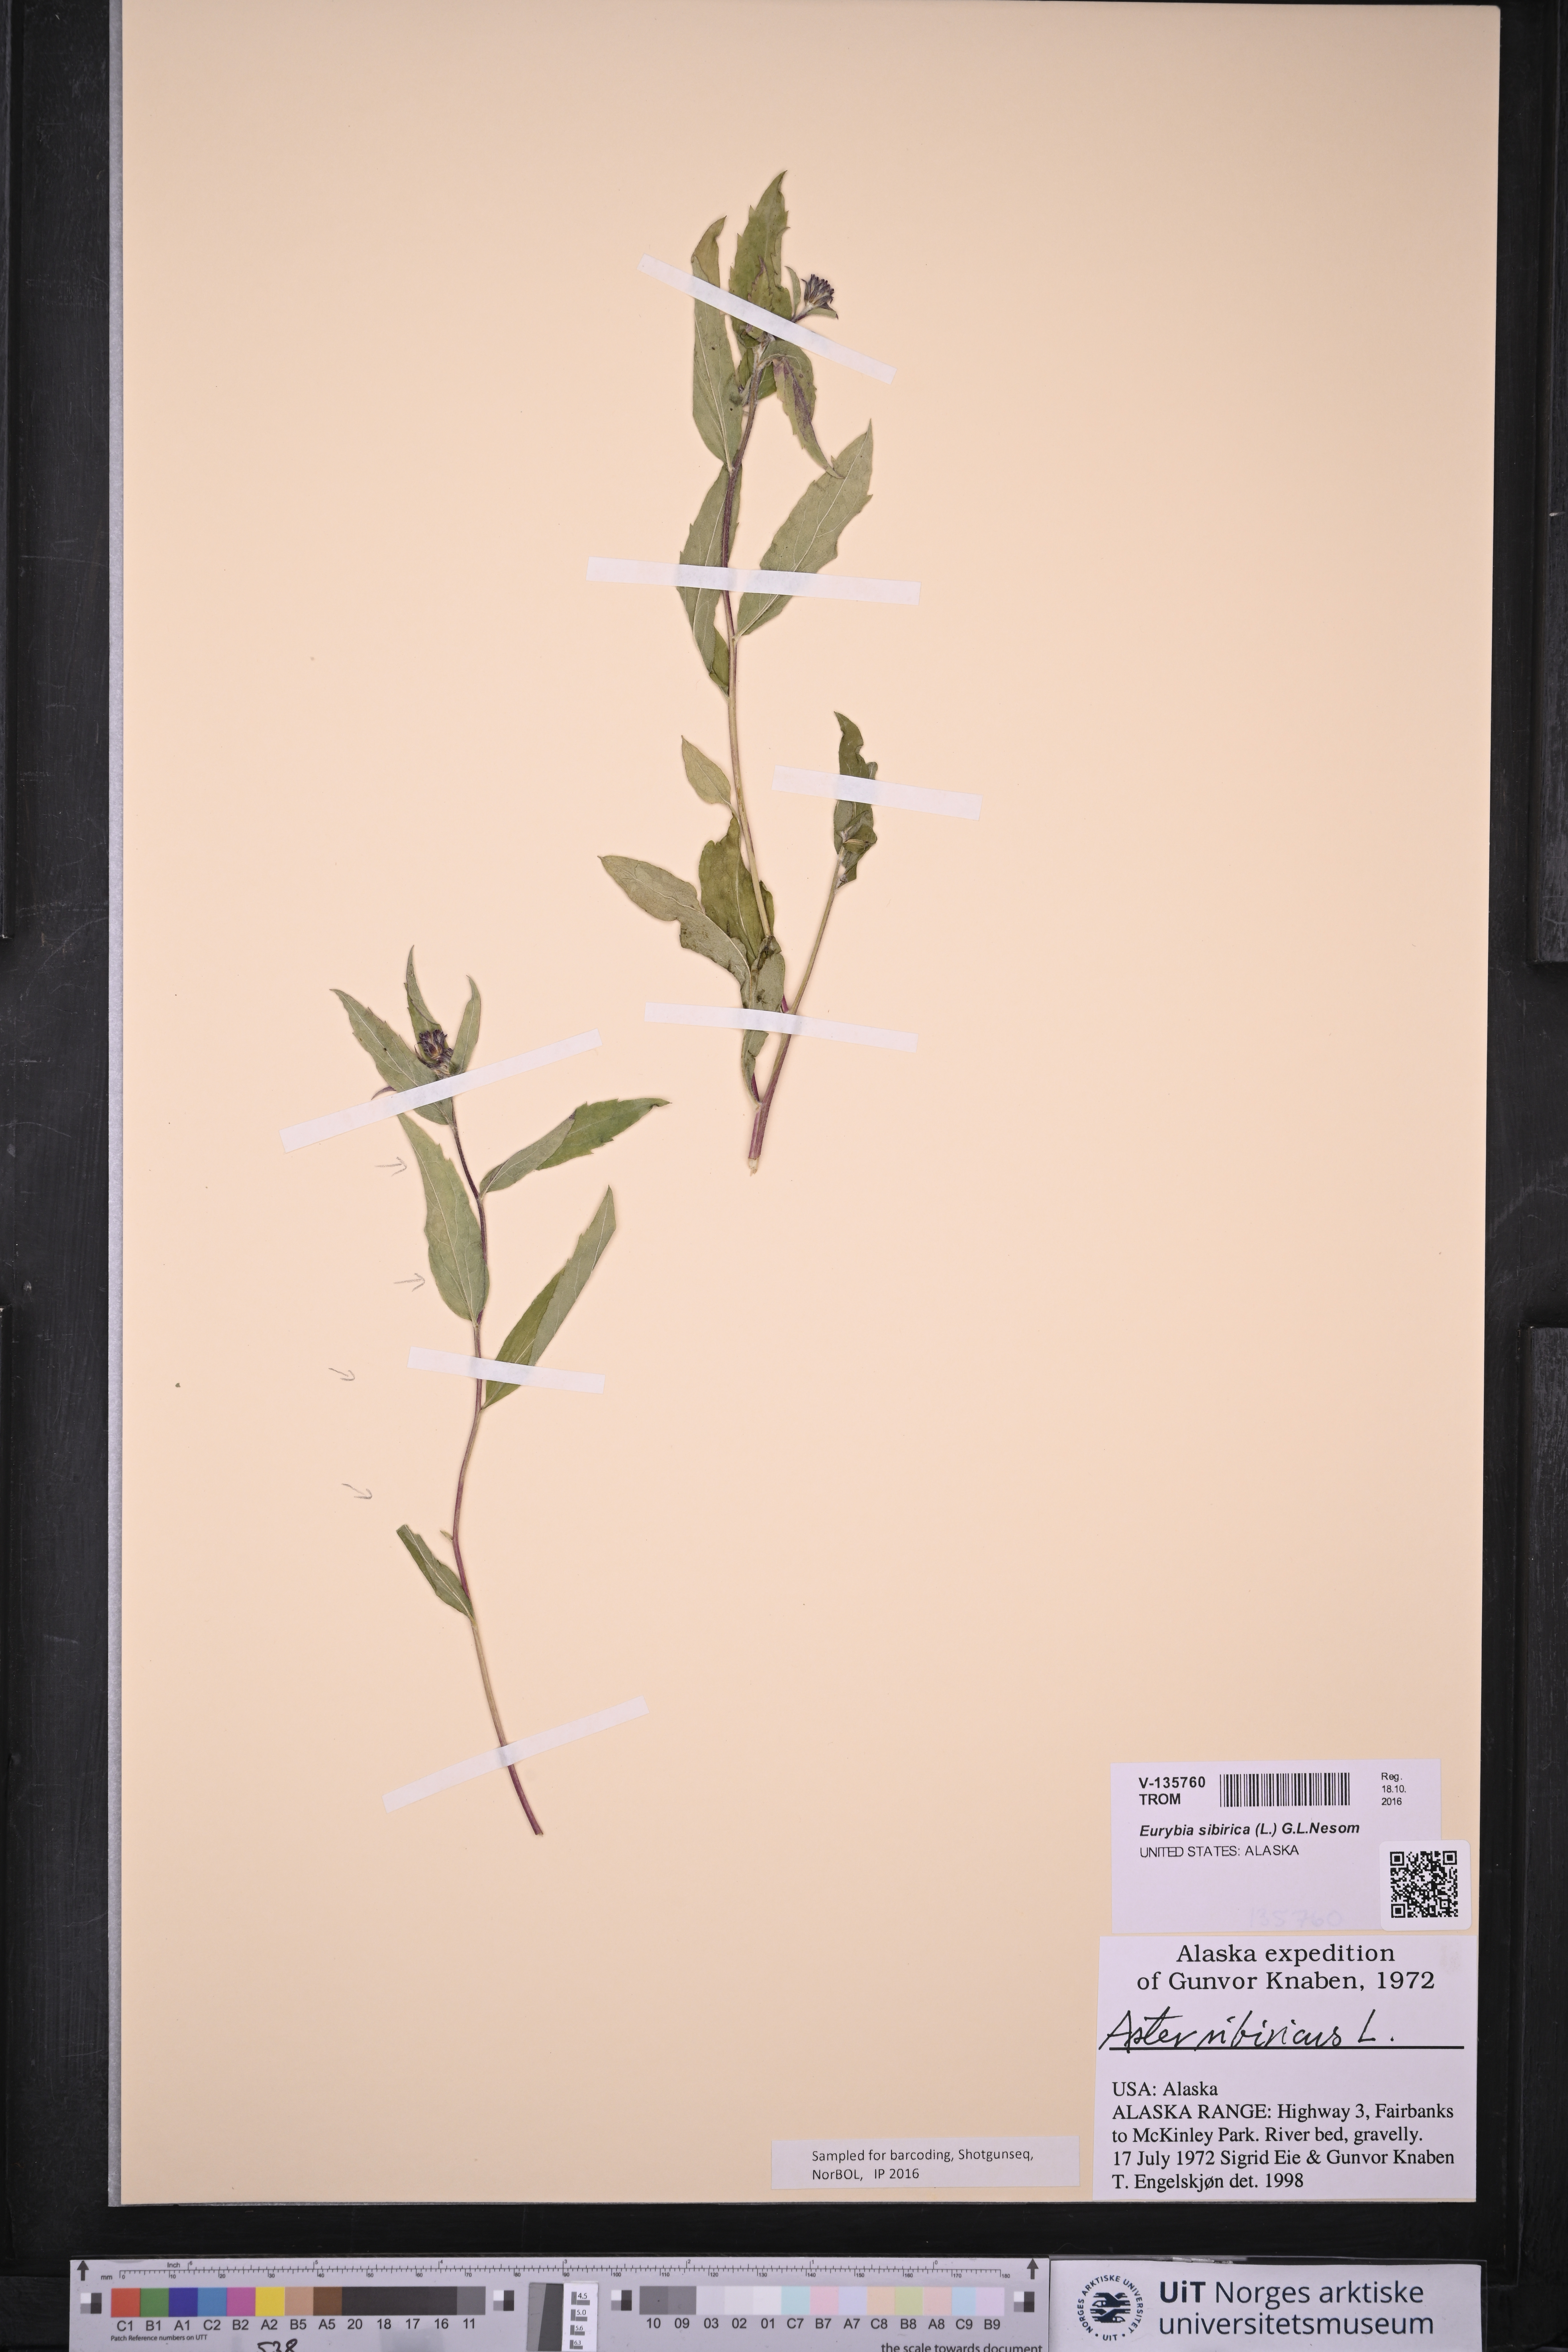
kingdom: Plantae
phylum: Tracheophyta
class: Magnoliopsida
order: Asterales
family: Asteraceae
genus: Eurybia
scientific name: Eurybia sibirica
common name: Arctic aster
